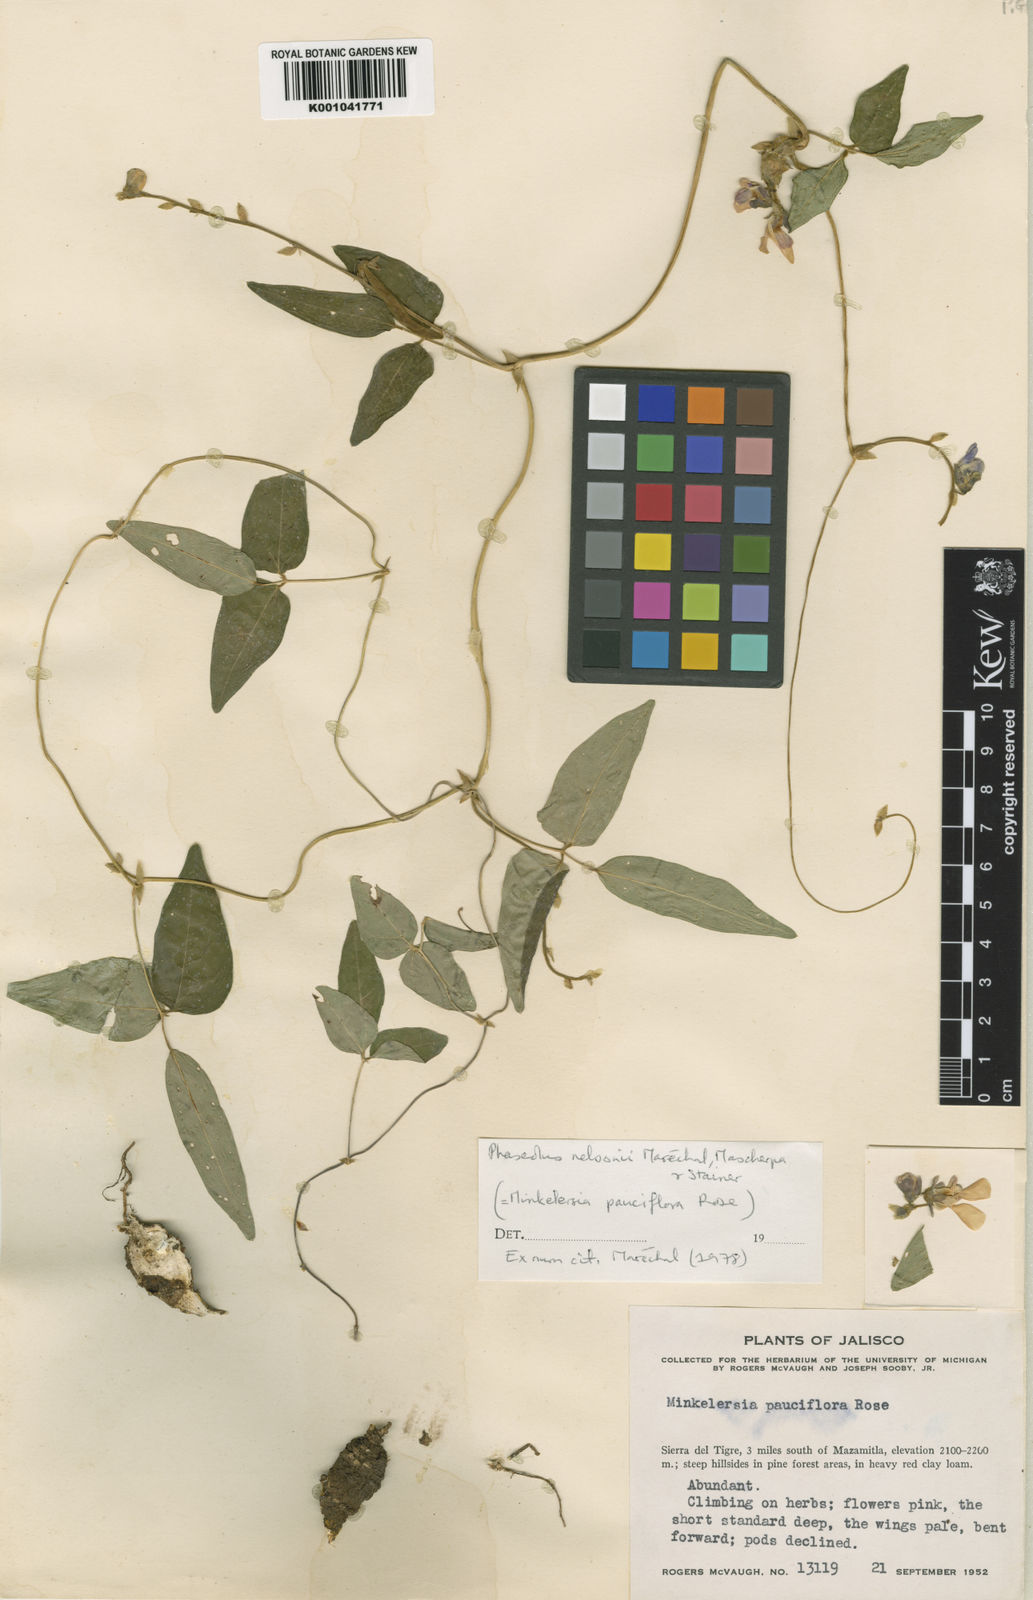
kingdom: Plantae
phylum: Tracheophyta
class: Magnoliopsida
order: Fabales
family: Fabaceae
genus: Phaseolus
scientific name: Phaseolus nelsonii
